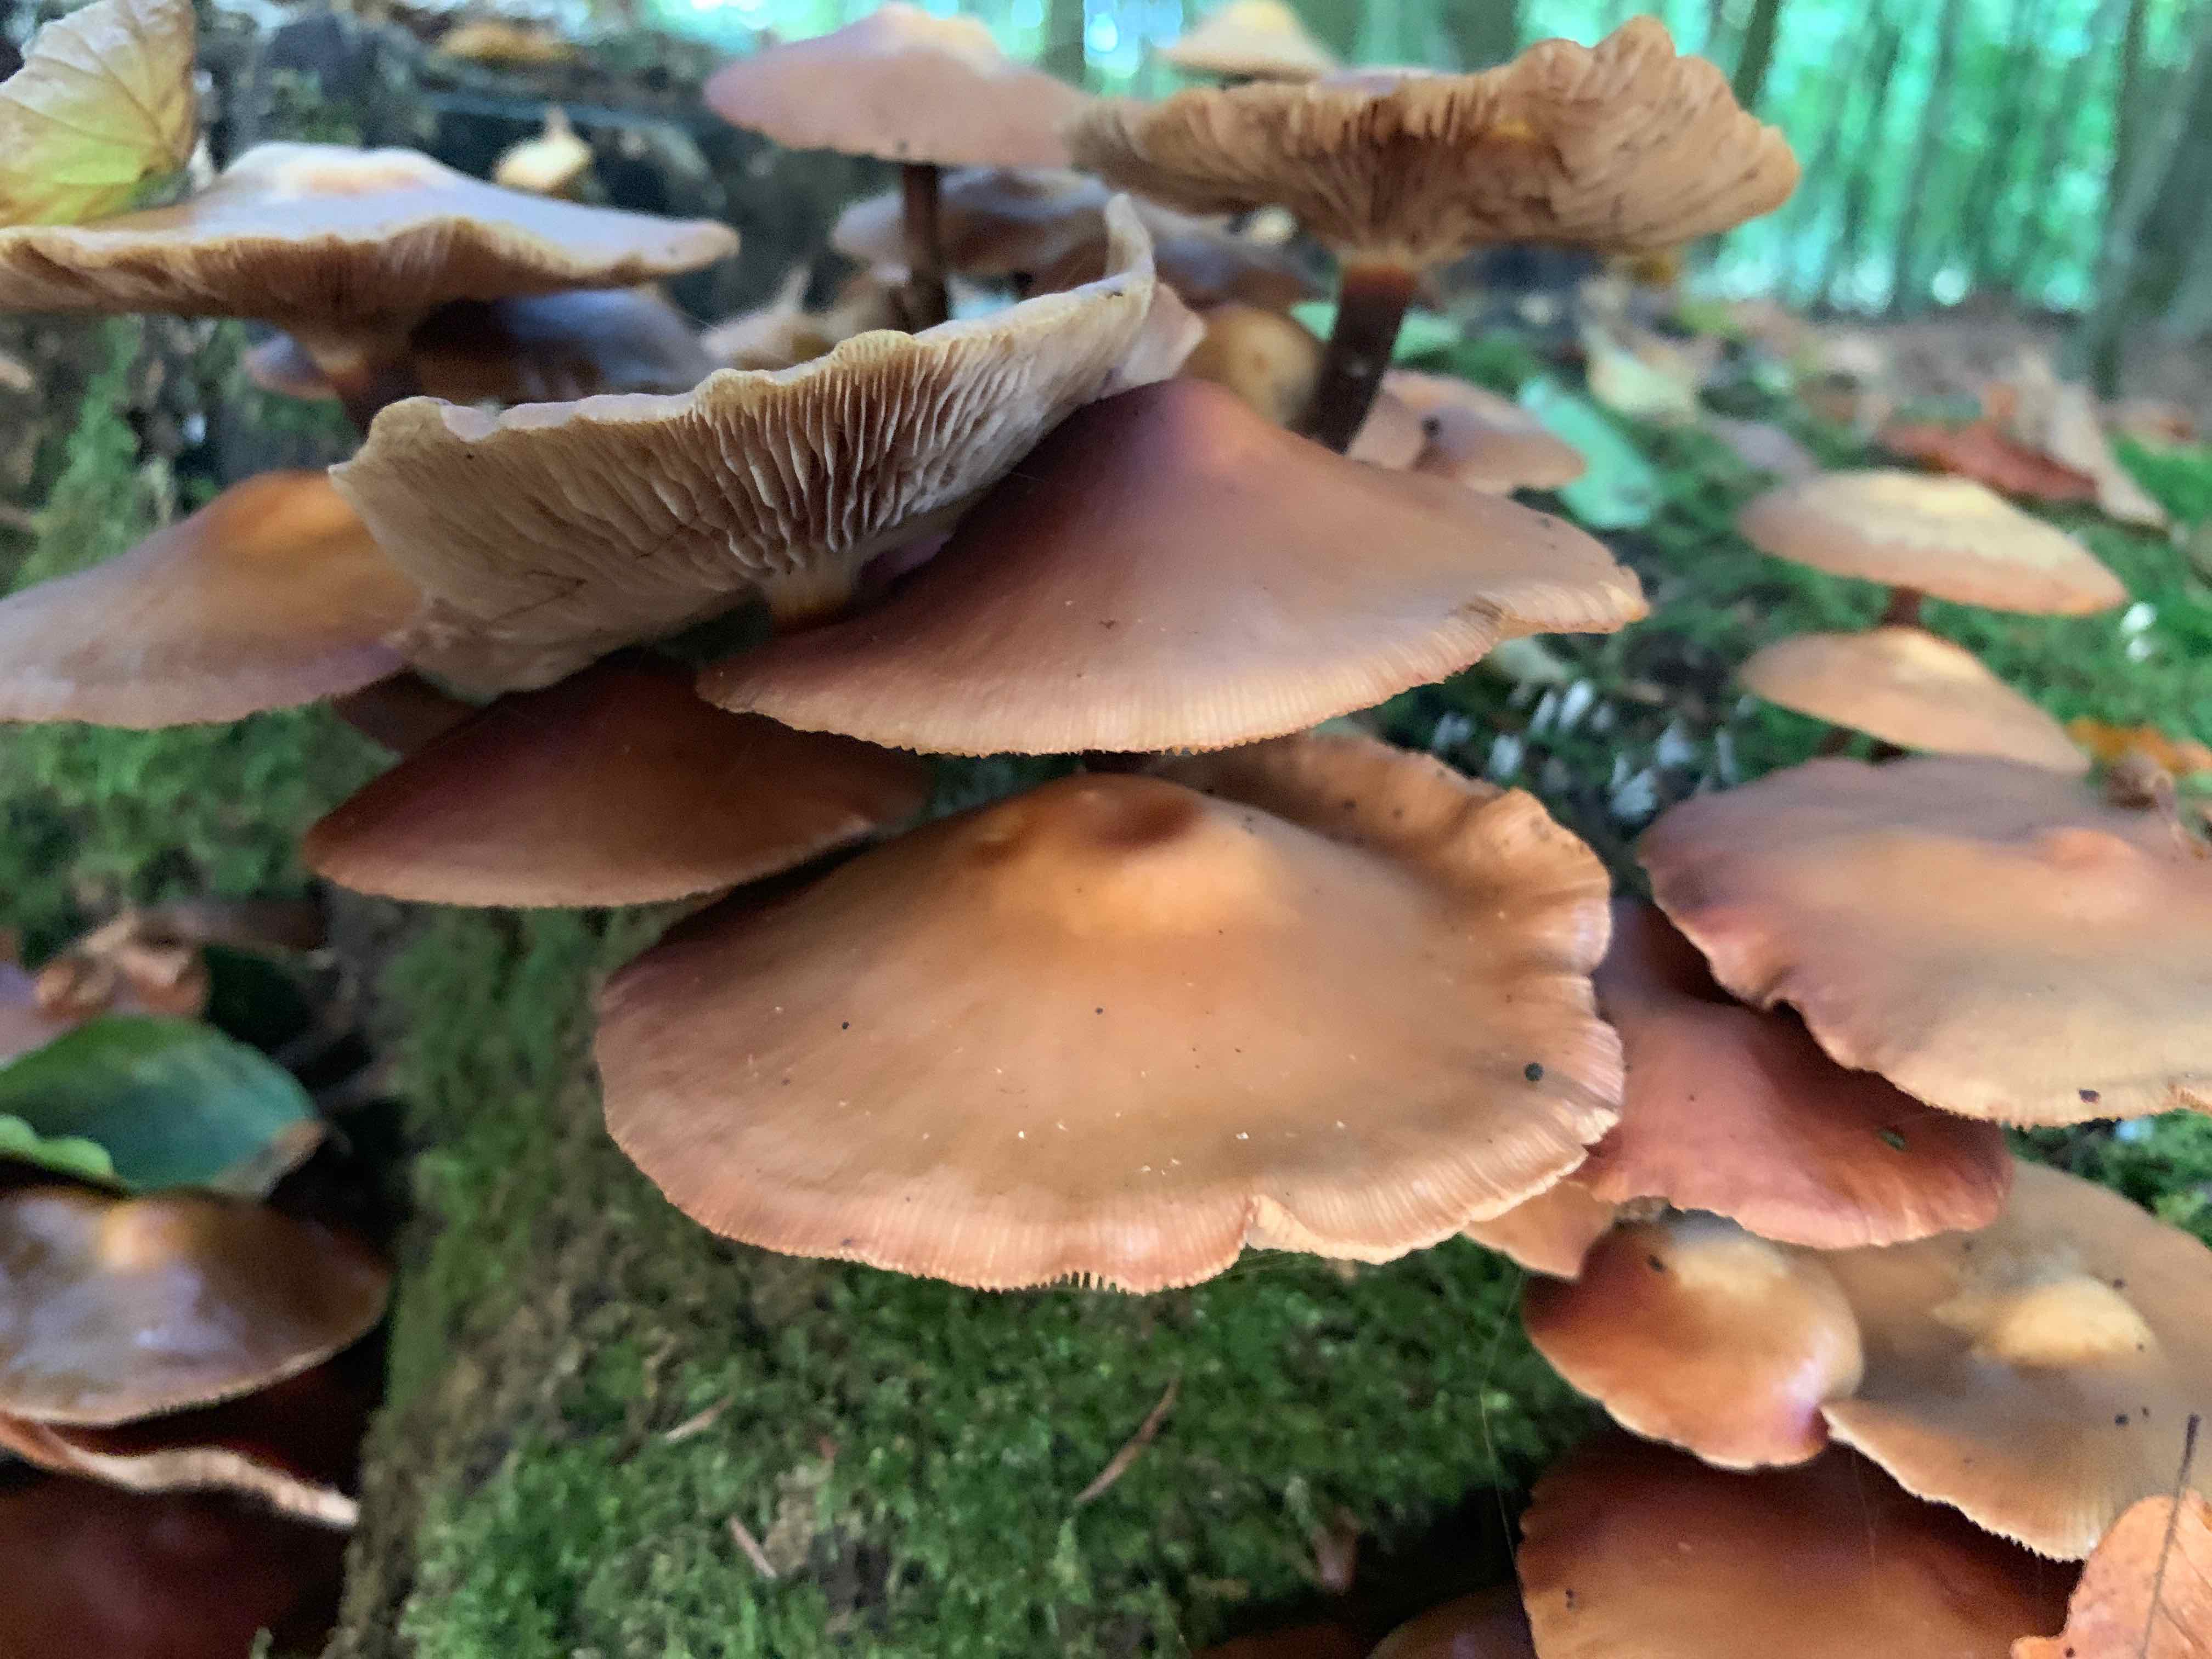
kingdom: Fungi
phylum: Basidiomycota
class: Agaricomycetes
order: Agaricales
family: Strophariaceae
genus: Kuehneromyces
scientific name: Kuehneromyces mutabilis
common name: foranderlig skælhat
